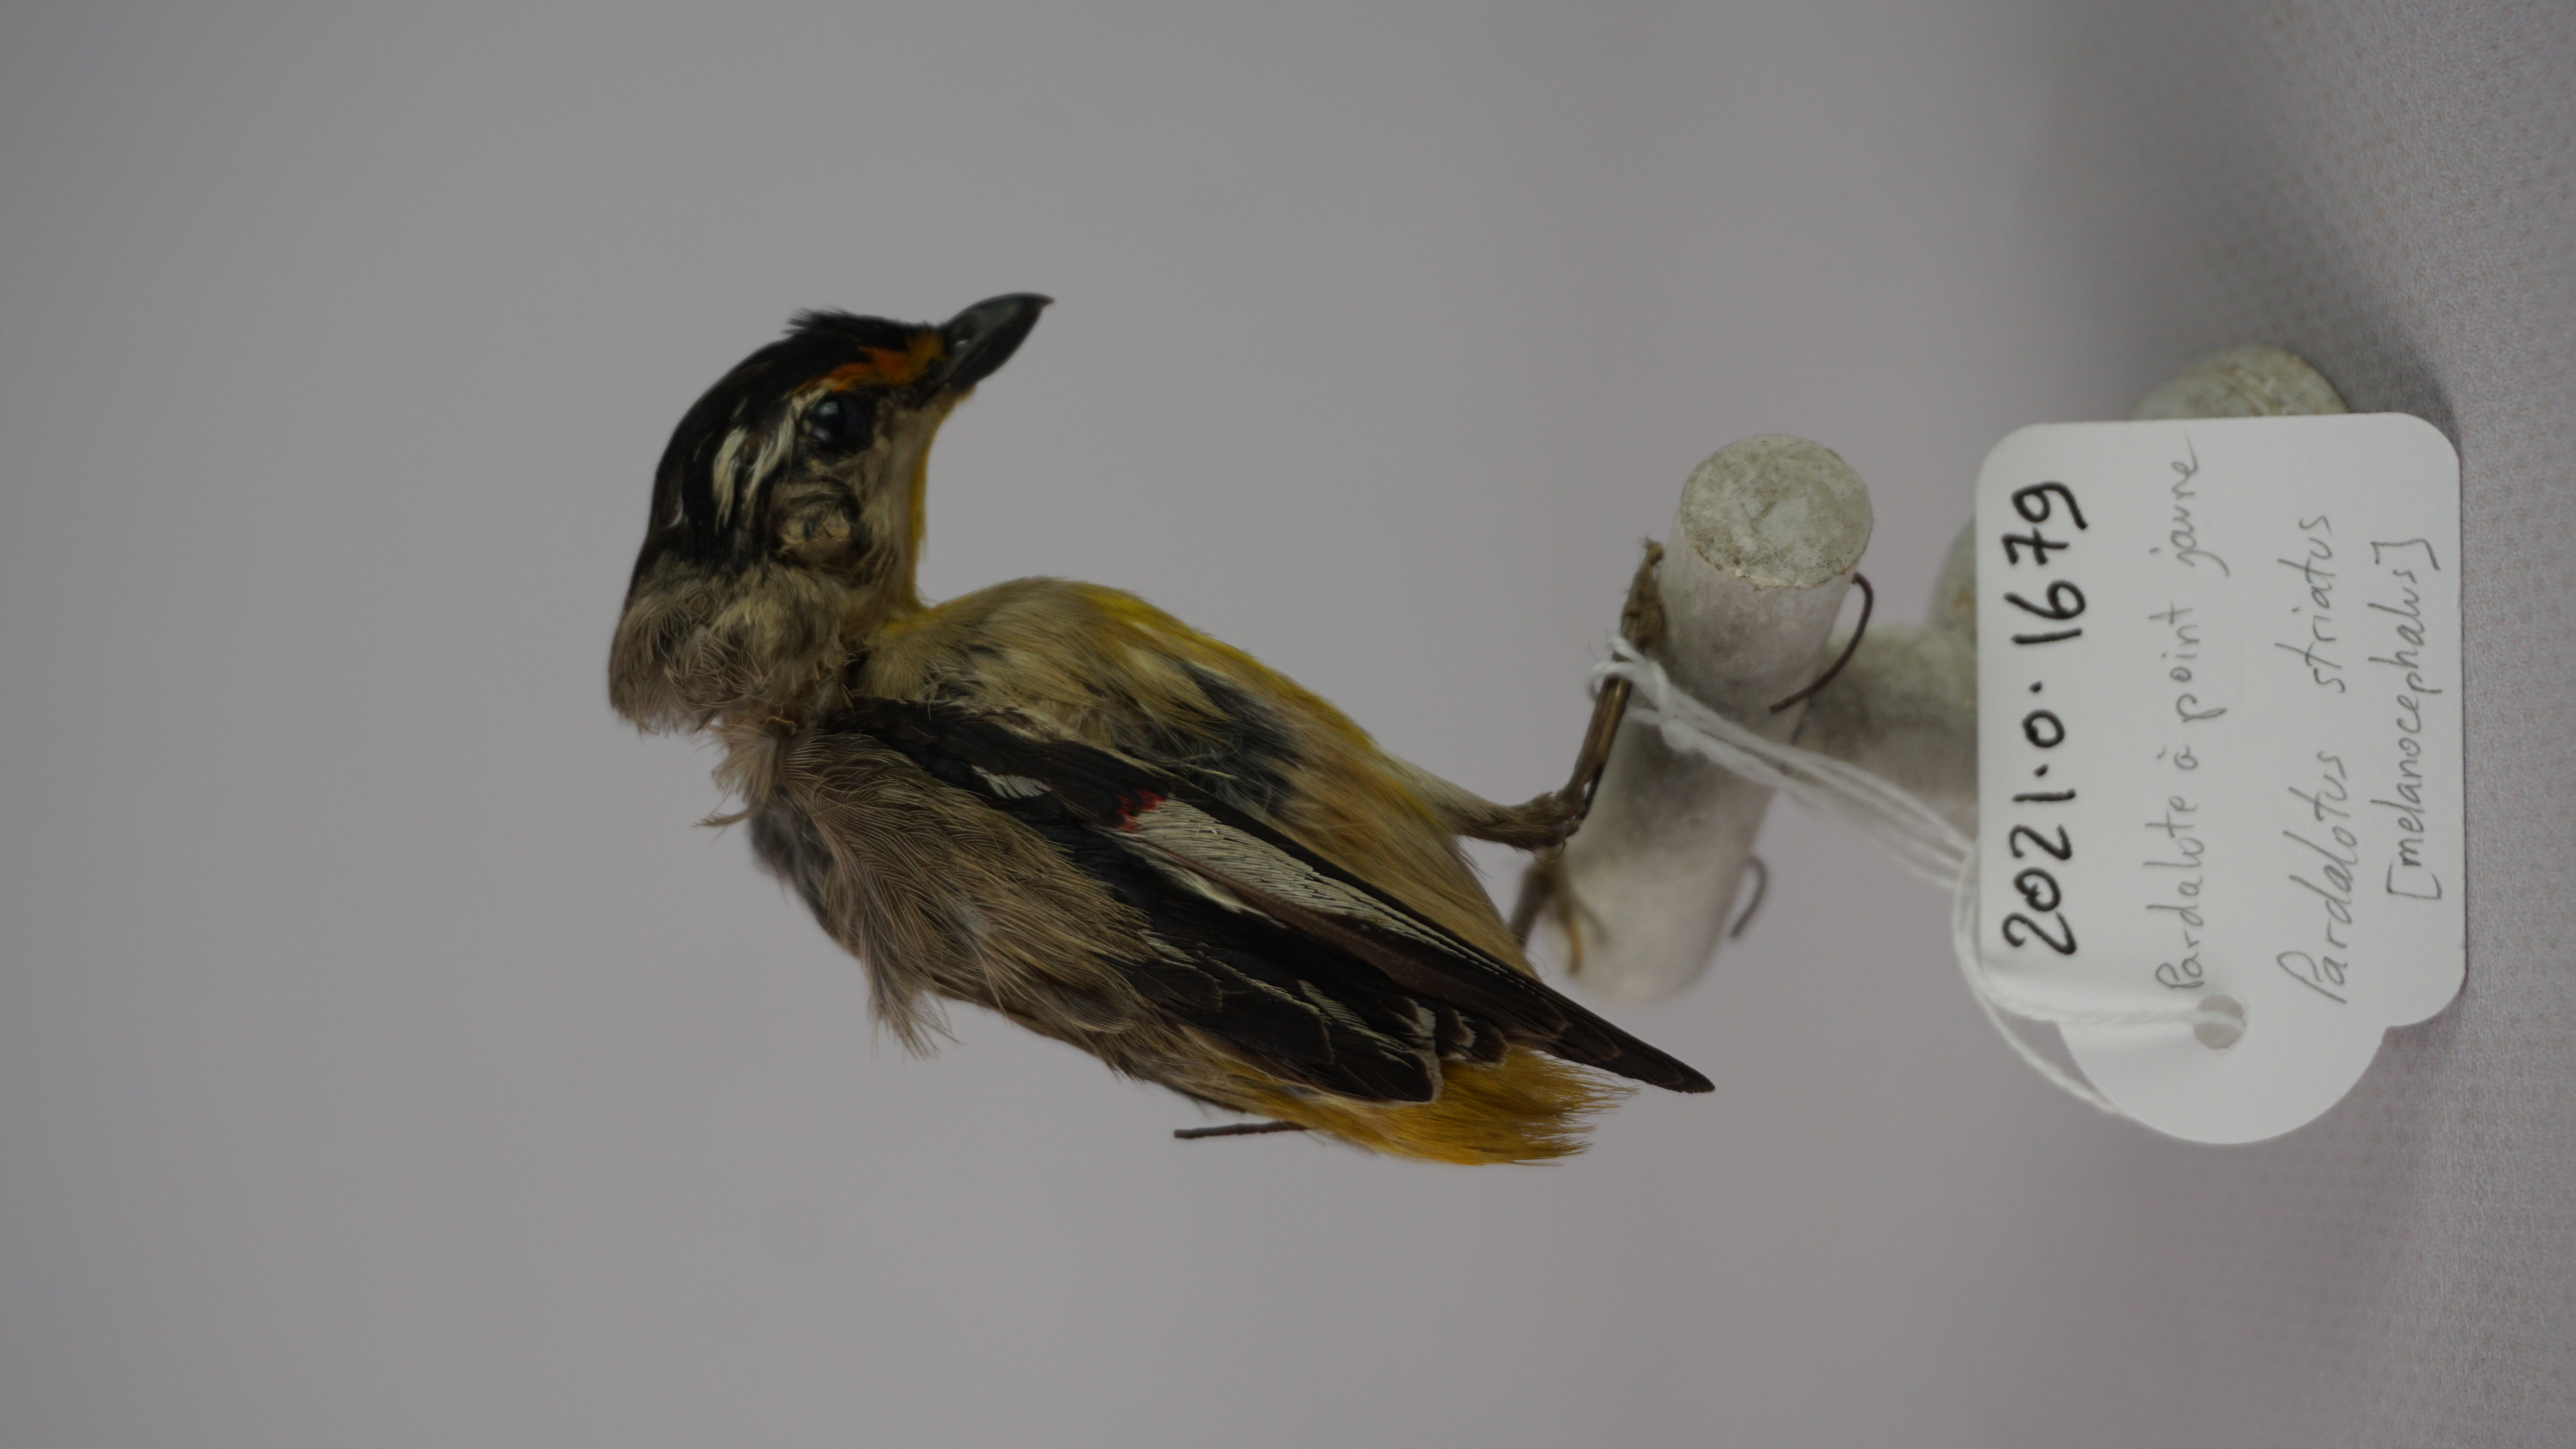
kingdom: Animalia
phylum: Chordata
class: Aves
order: Passeriformes
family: Pardalotidae
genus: Pardalotus
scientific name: Pardalotus striatus
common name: Striated pardalote
